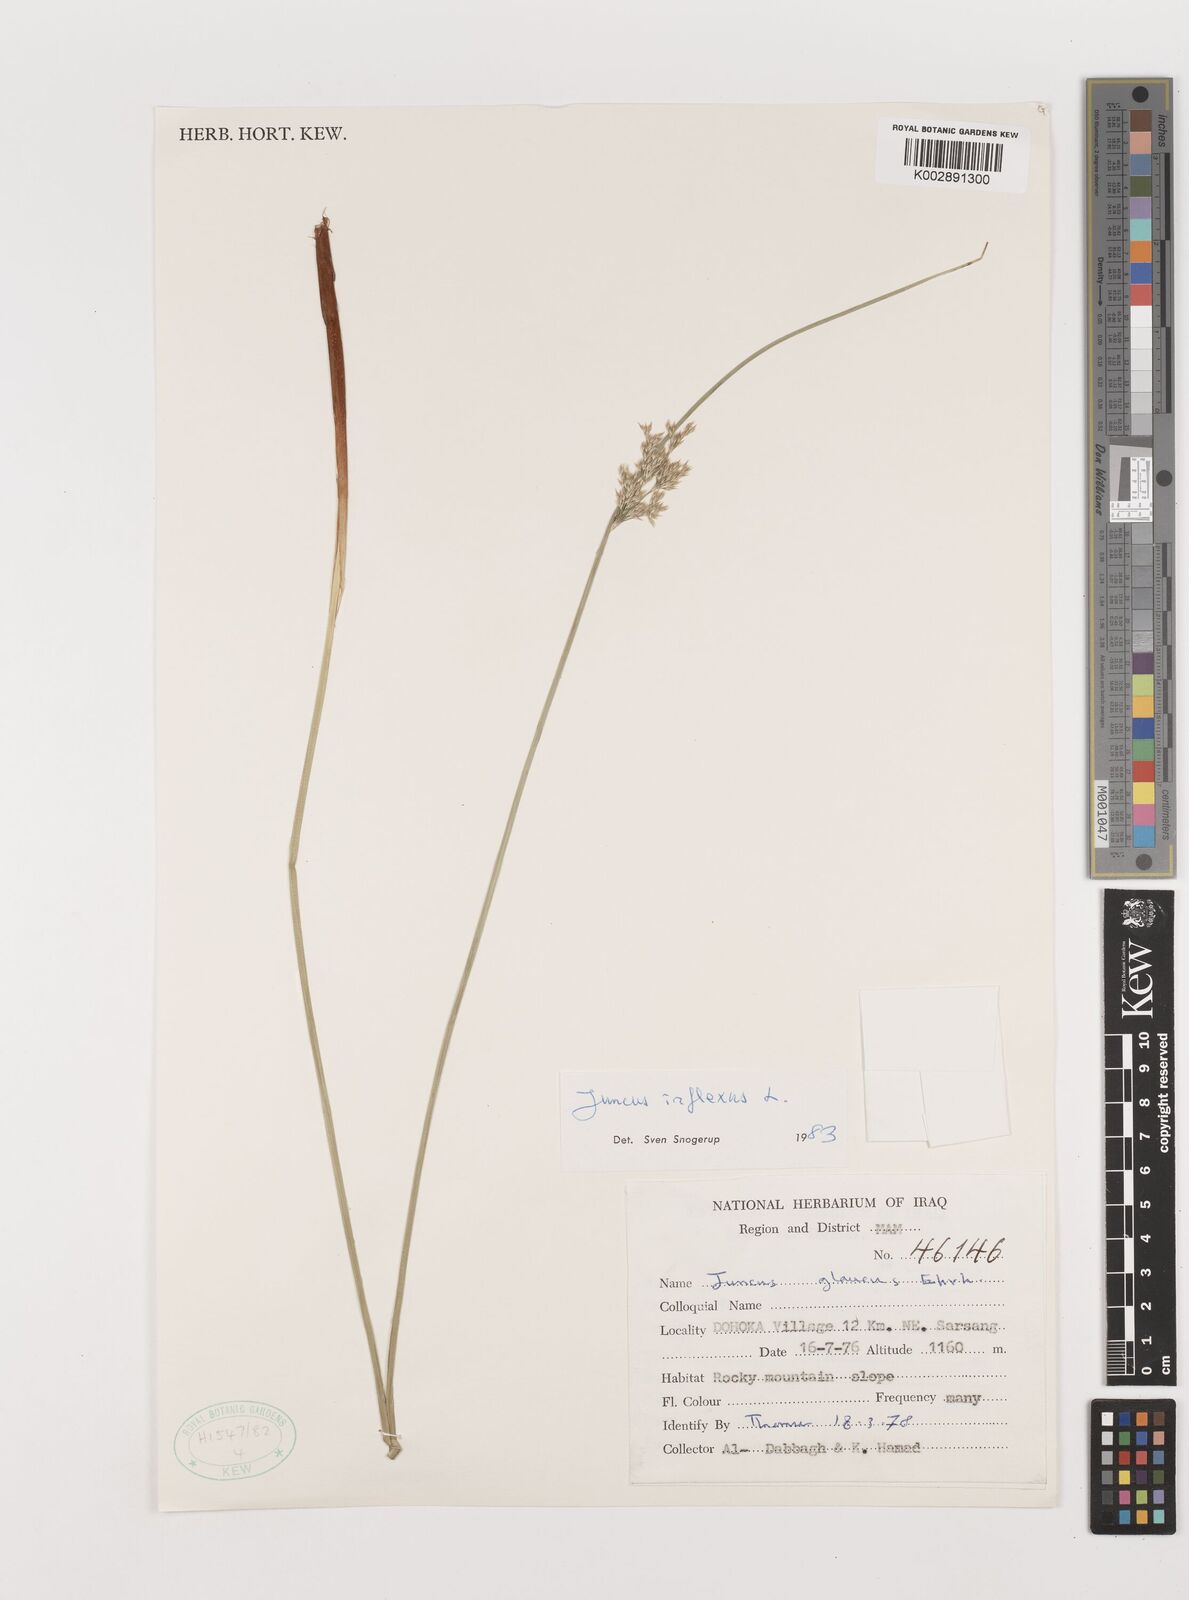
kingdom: Plantae
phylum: Tracheophyta
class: Liliopsida
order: Poales
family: Juncaceae
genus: Juncus
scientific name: Juncus inflexus
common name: Hard rush
